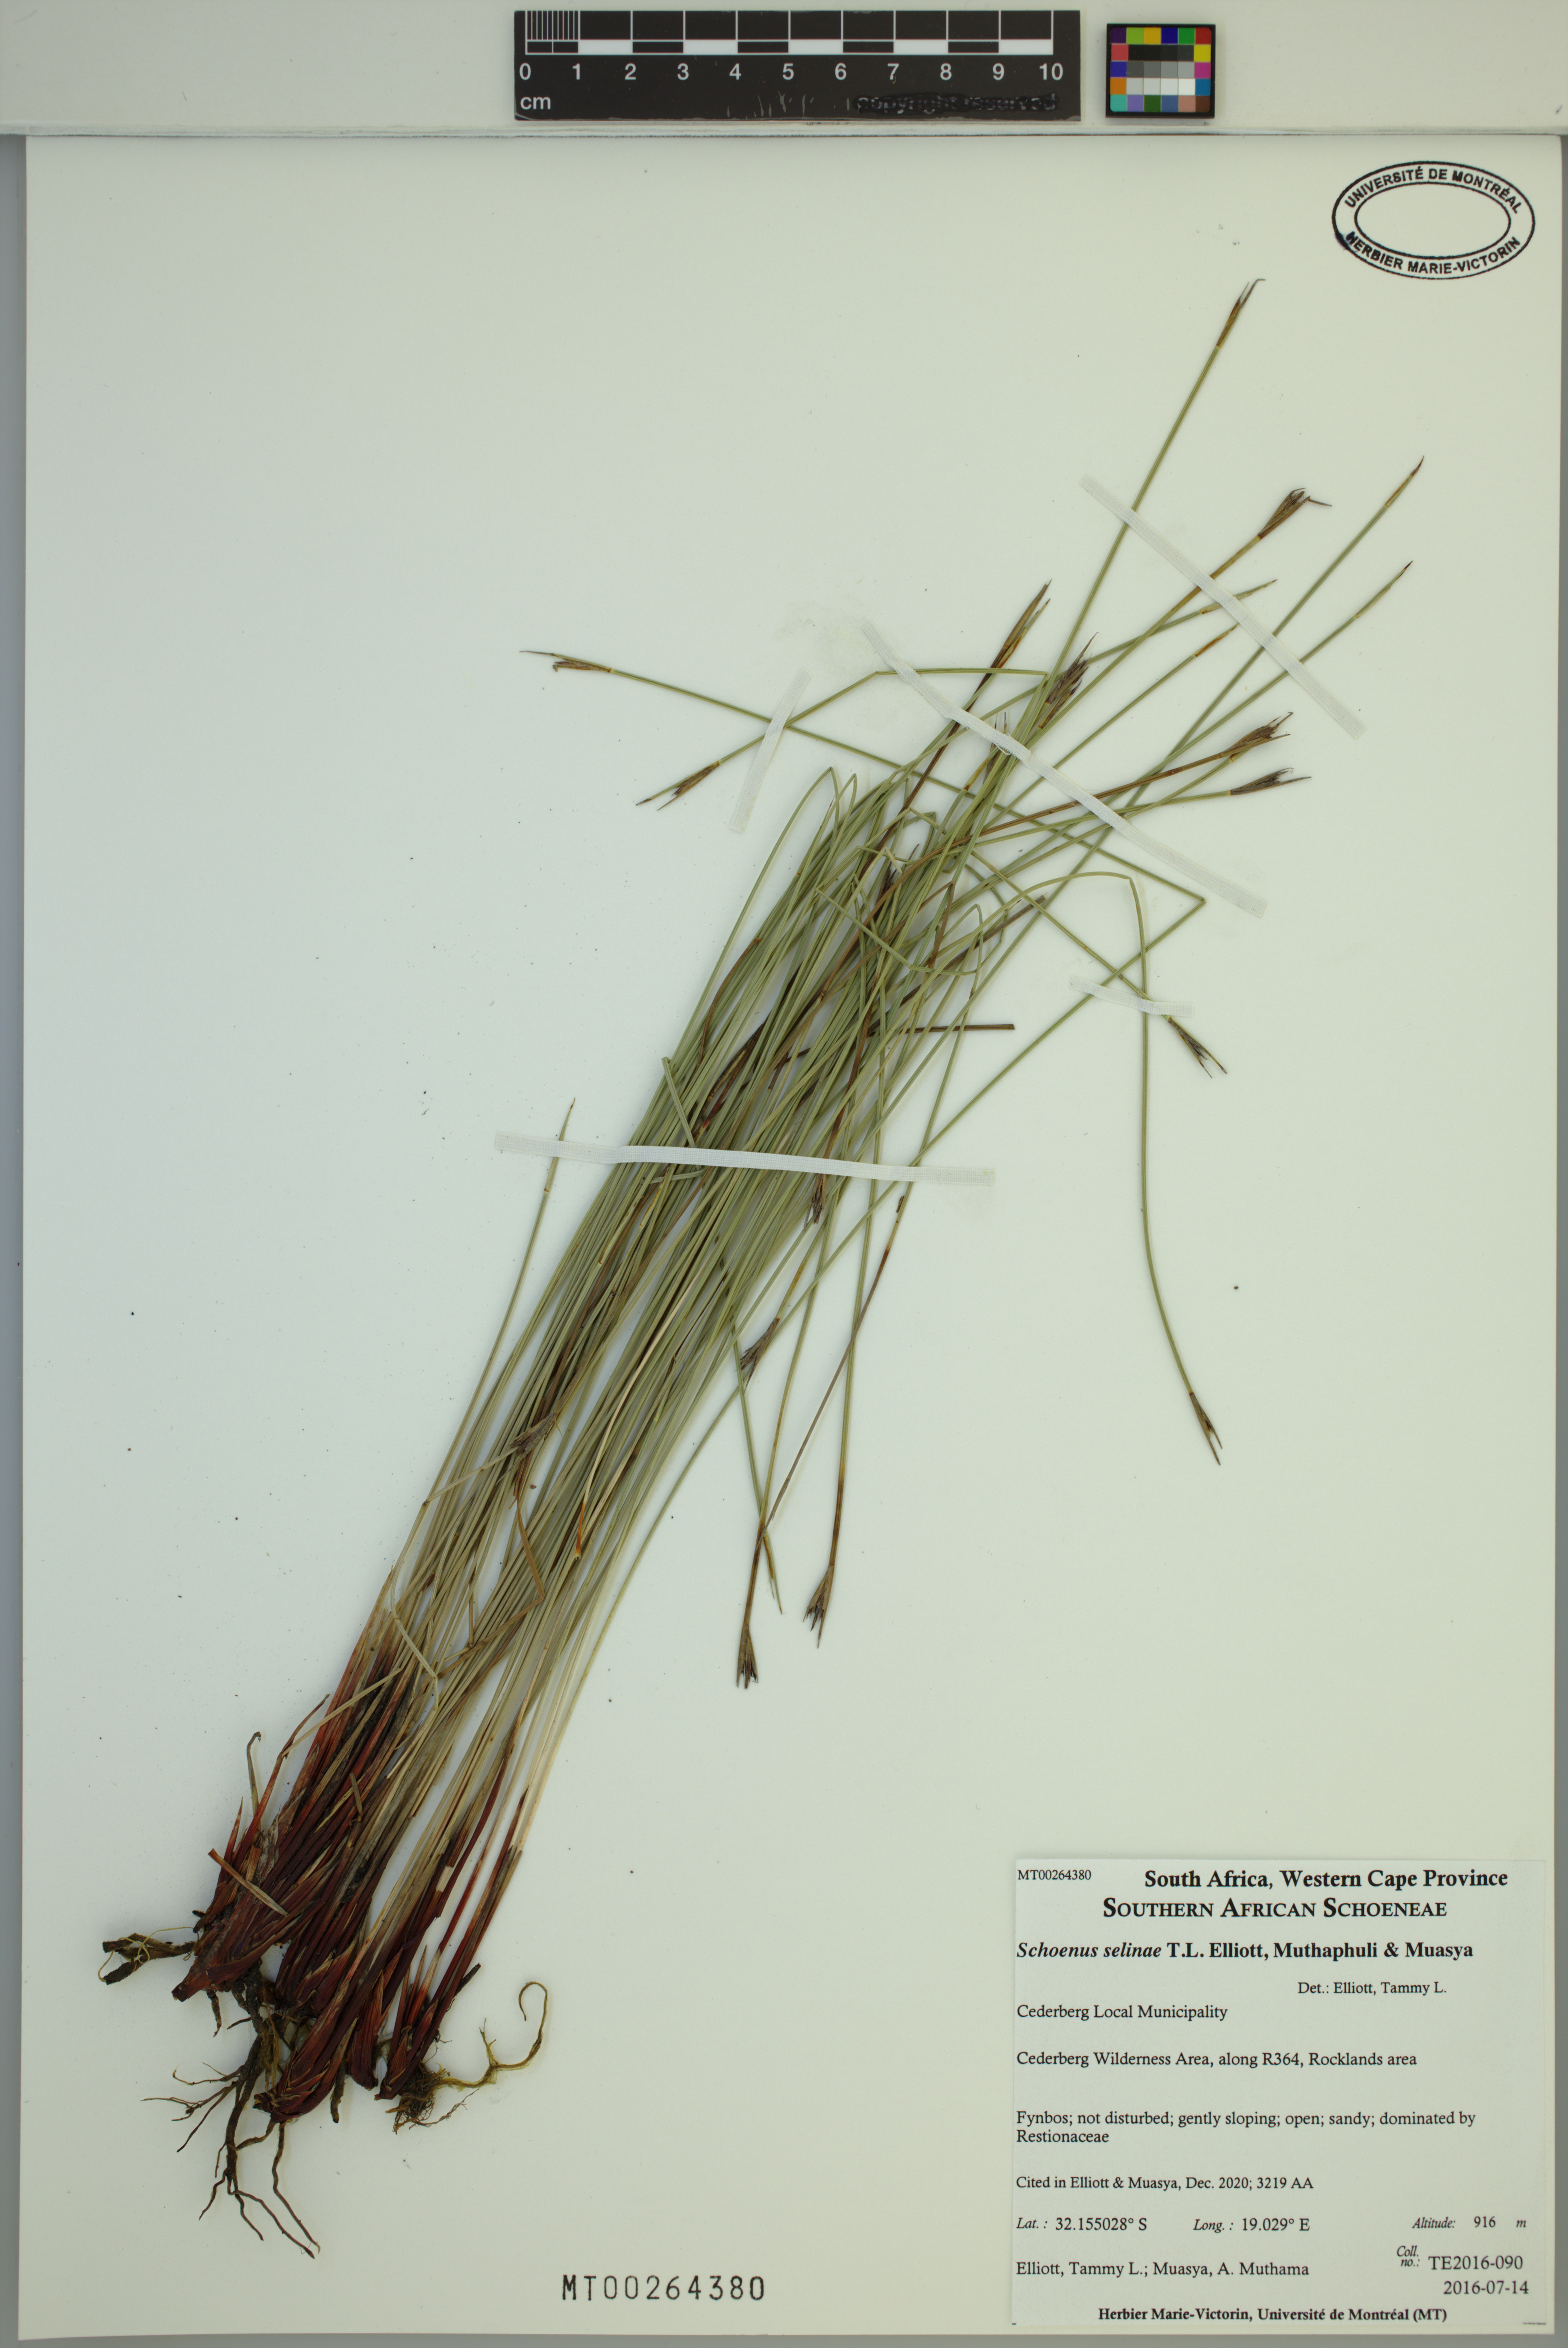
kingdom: Plantae
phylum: Tracheophyta
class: Liliopsida
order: Poales
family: Cyperaceae
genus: Schoenus
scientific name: Schoenus selinae
